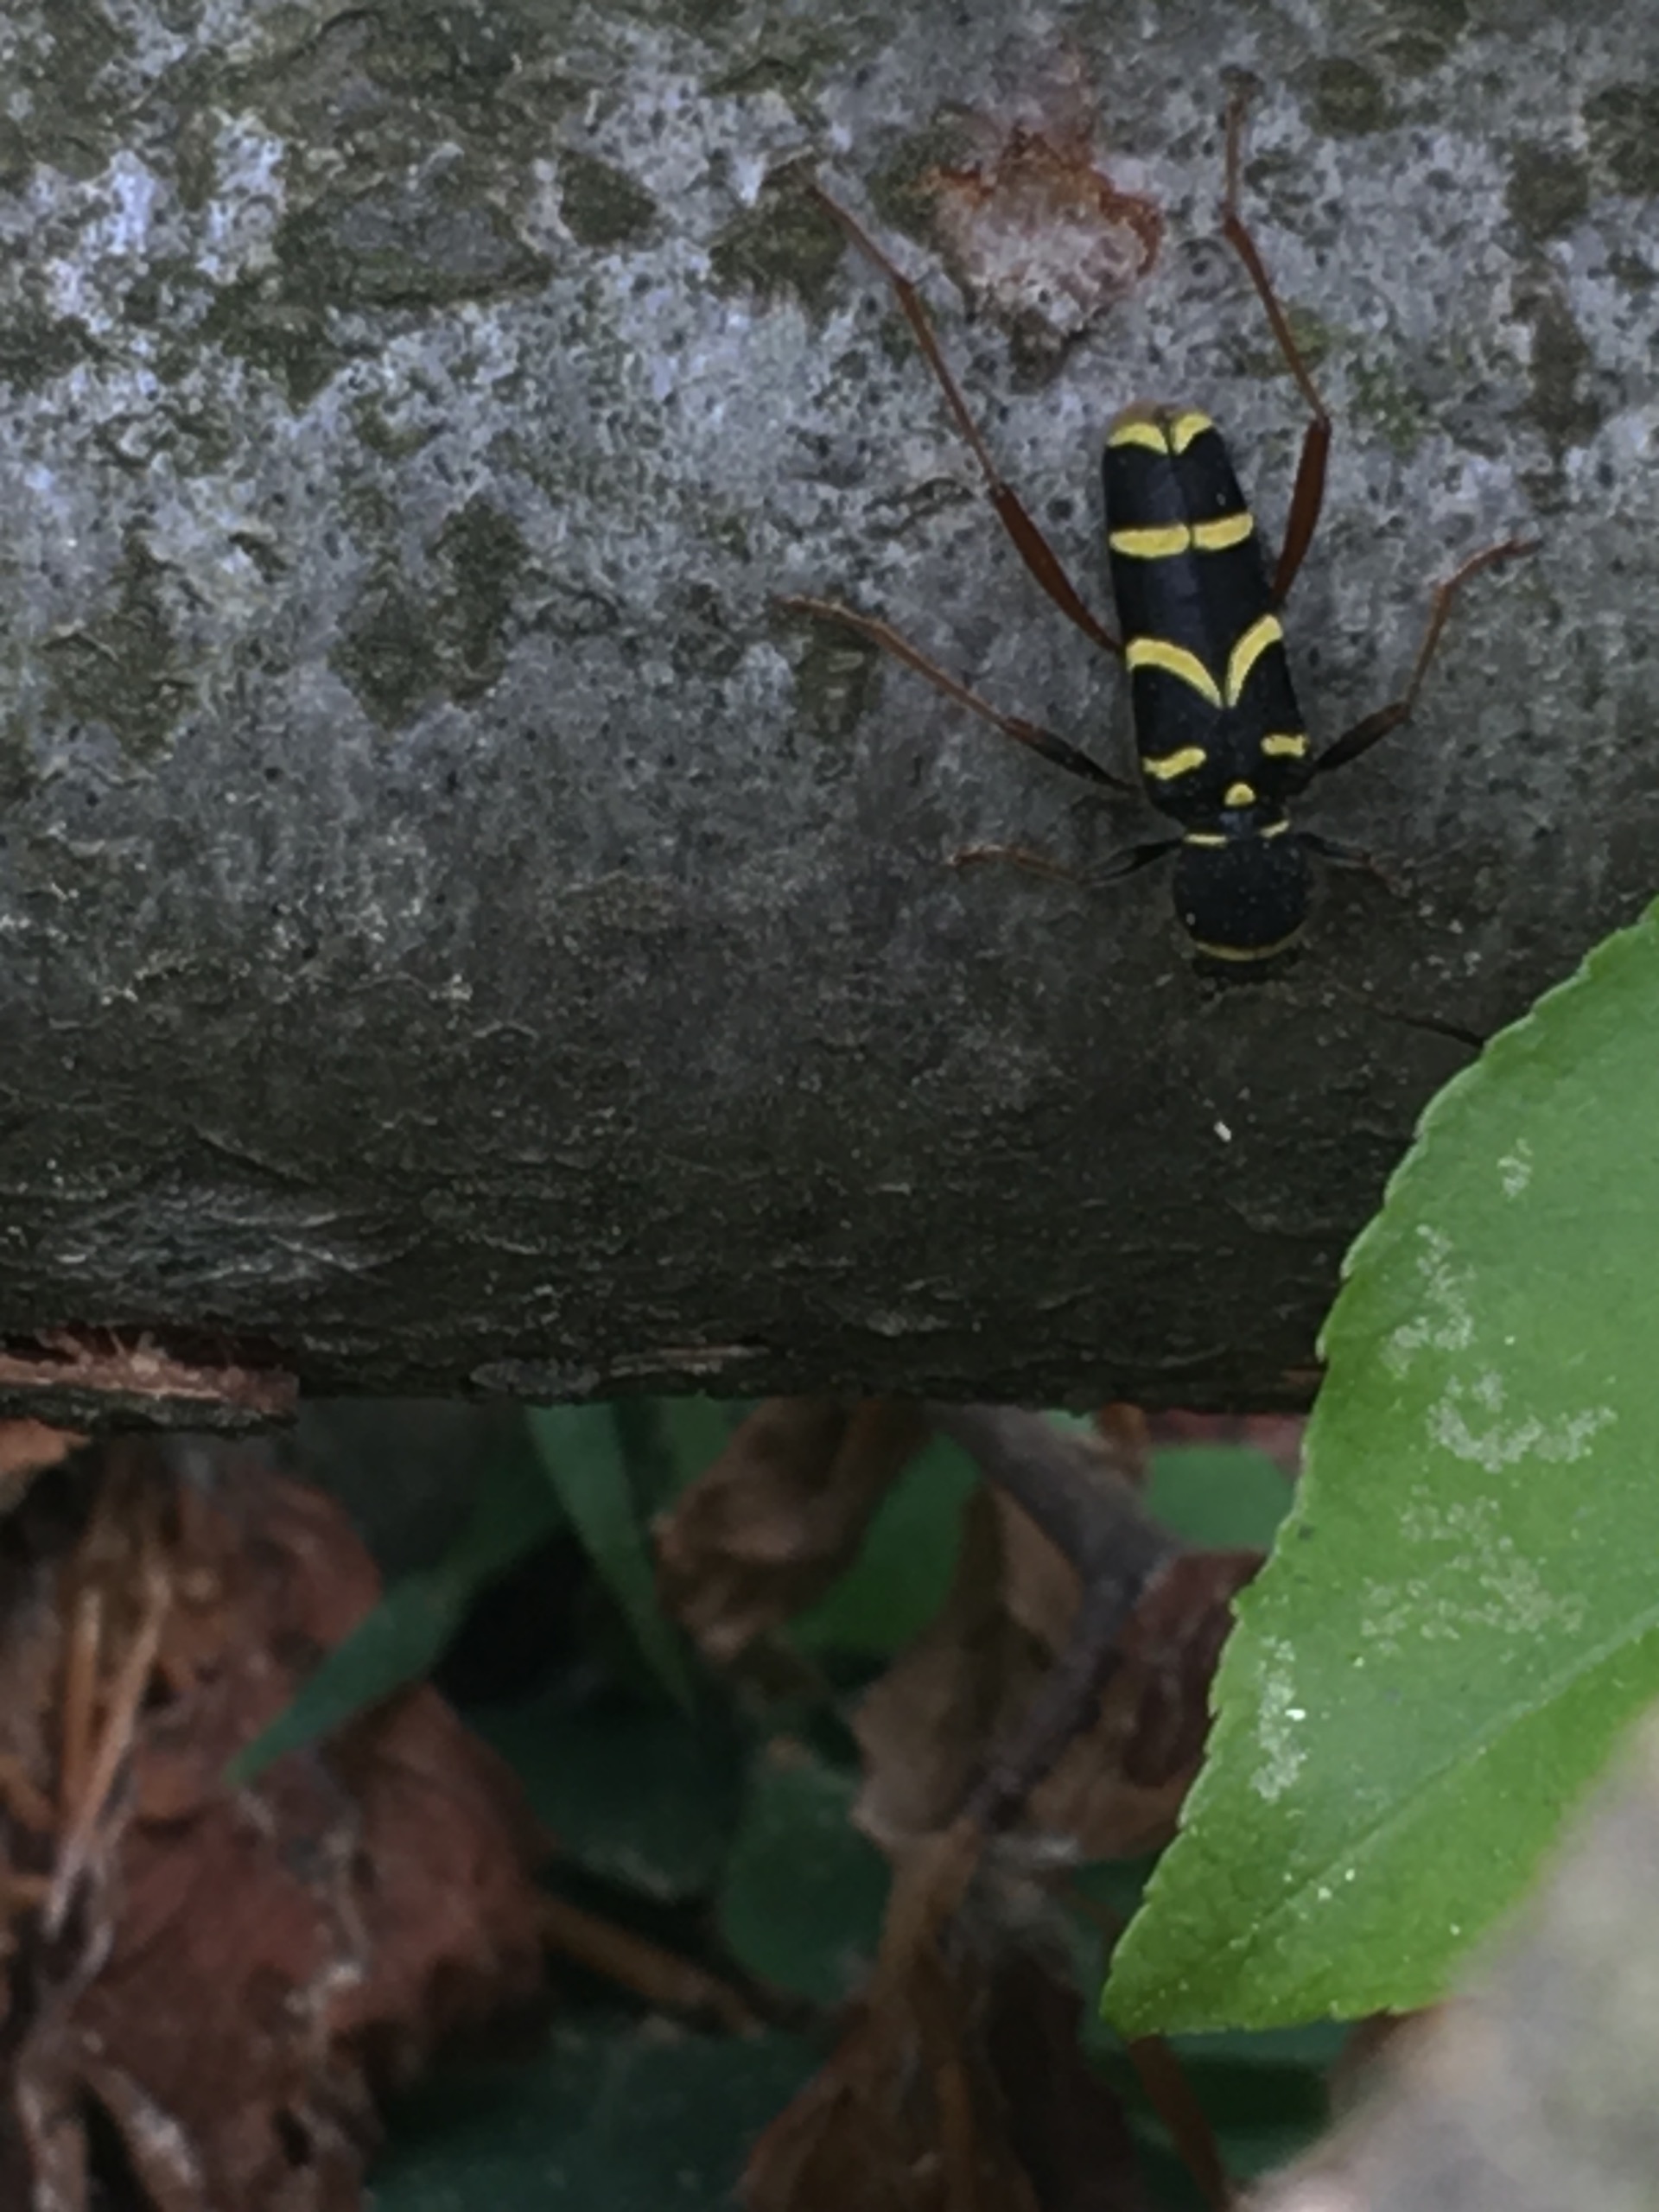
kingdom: Animalia
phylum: Arthropoda
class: Insecta
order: Coleoptera
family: Cerambycidae
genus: Clytus
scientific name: Clytus arietis
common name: Lille hvepsebuk
